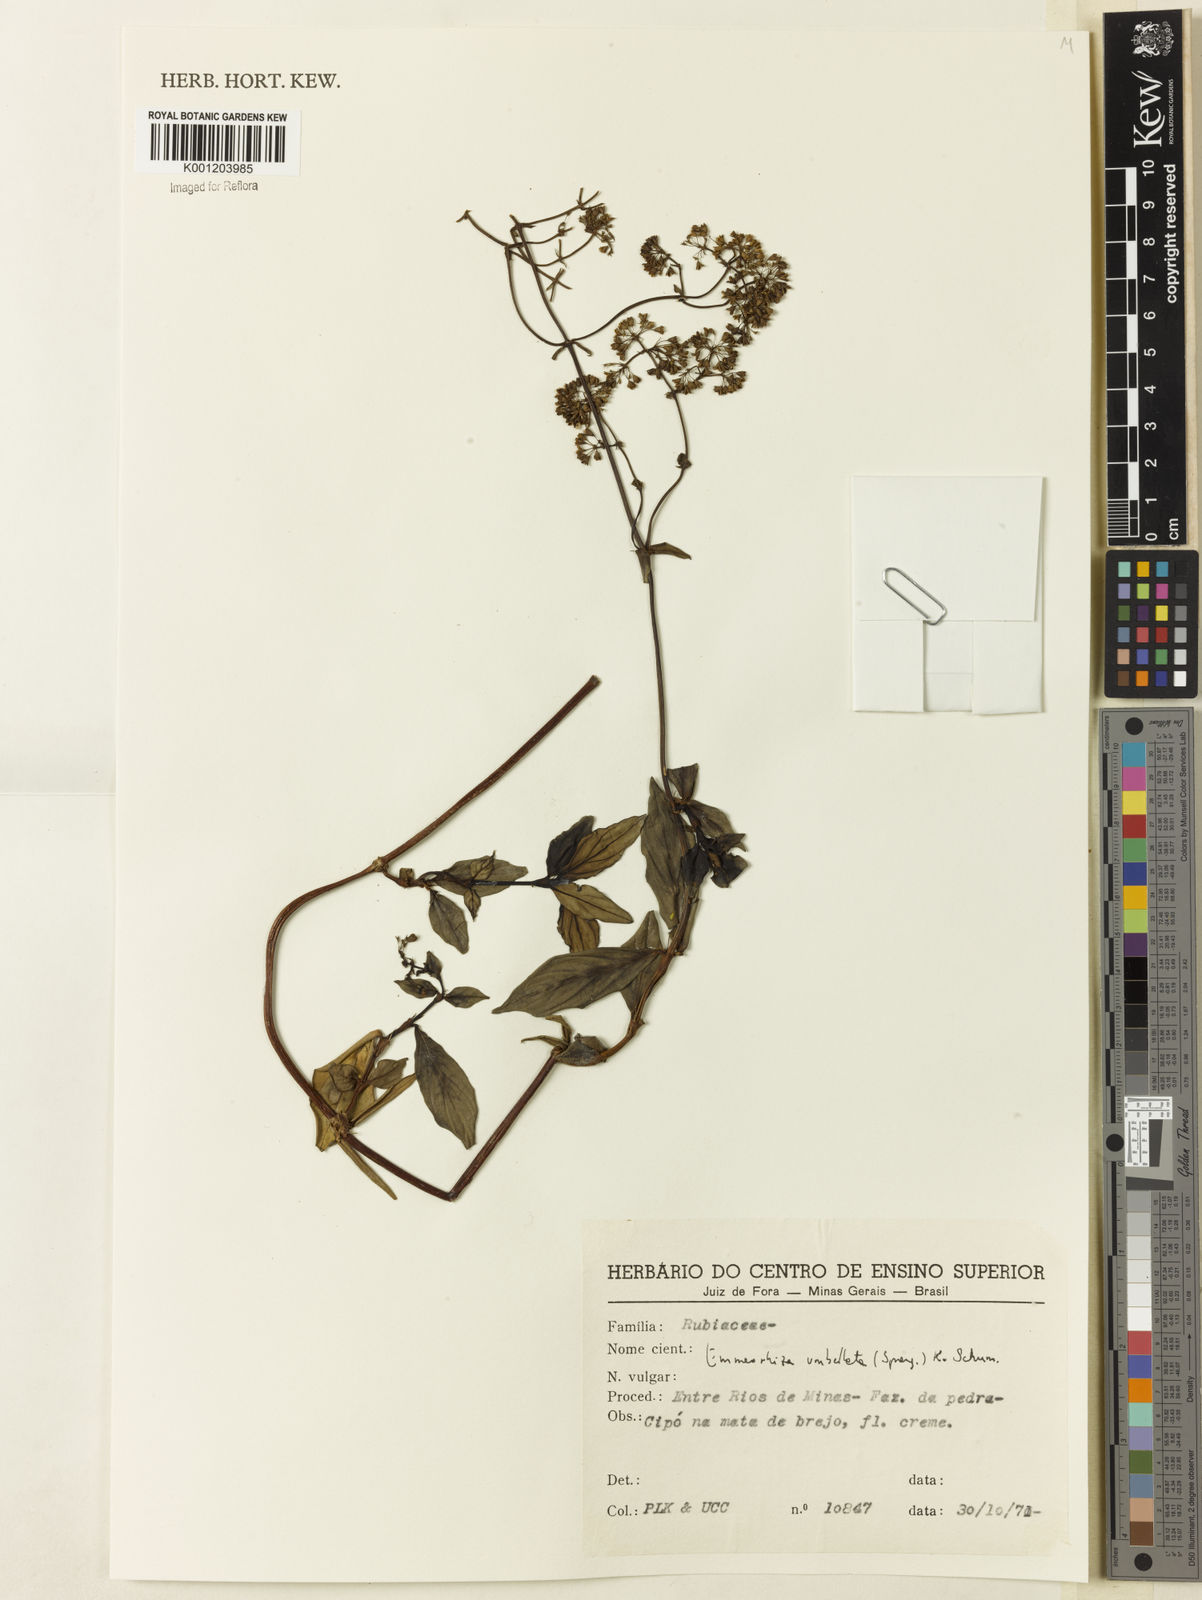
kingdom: Plantae
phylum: Tracheophyta
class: Magnoliopsida
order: Gentianales
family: Rubiaceae
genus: Emmeorhiza
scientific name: Emmeorhiza umbellata
